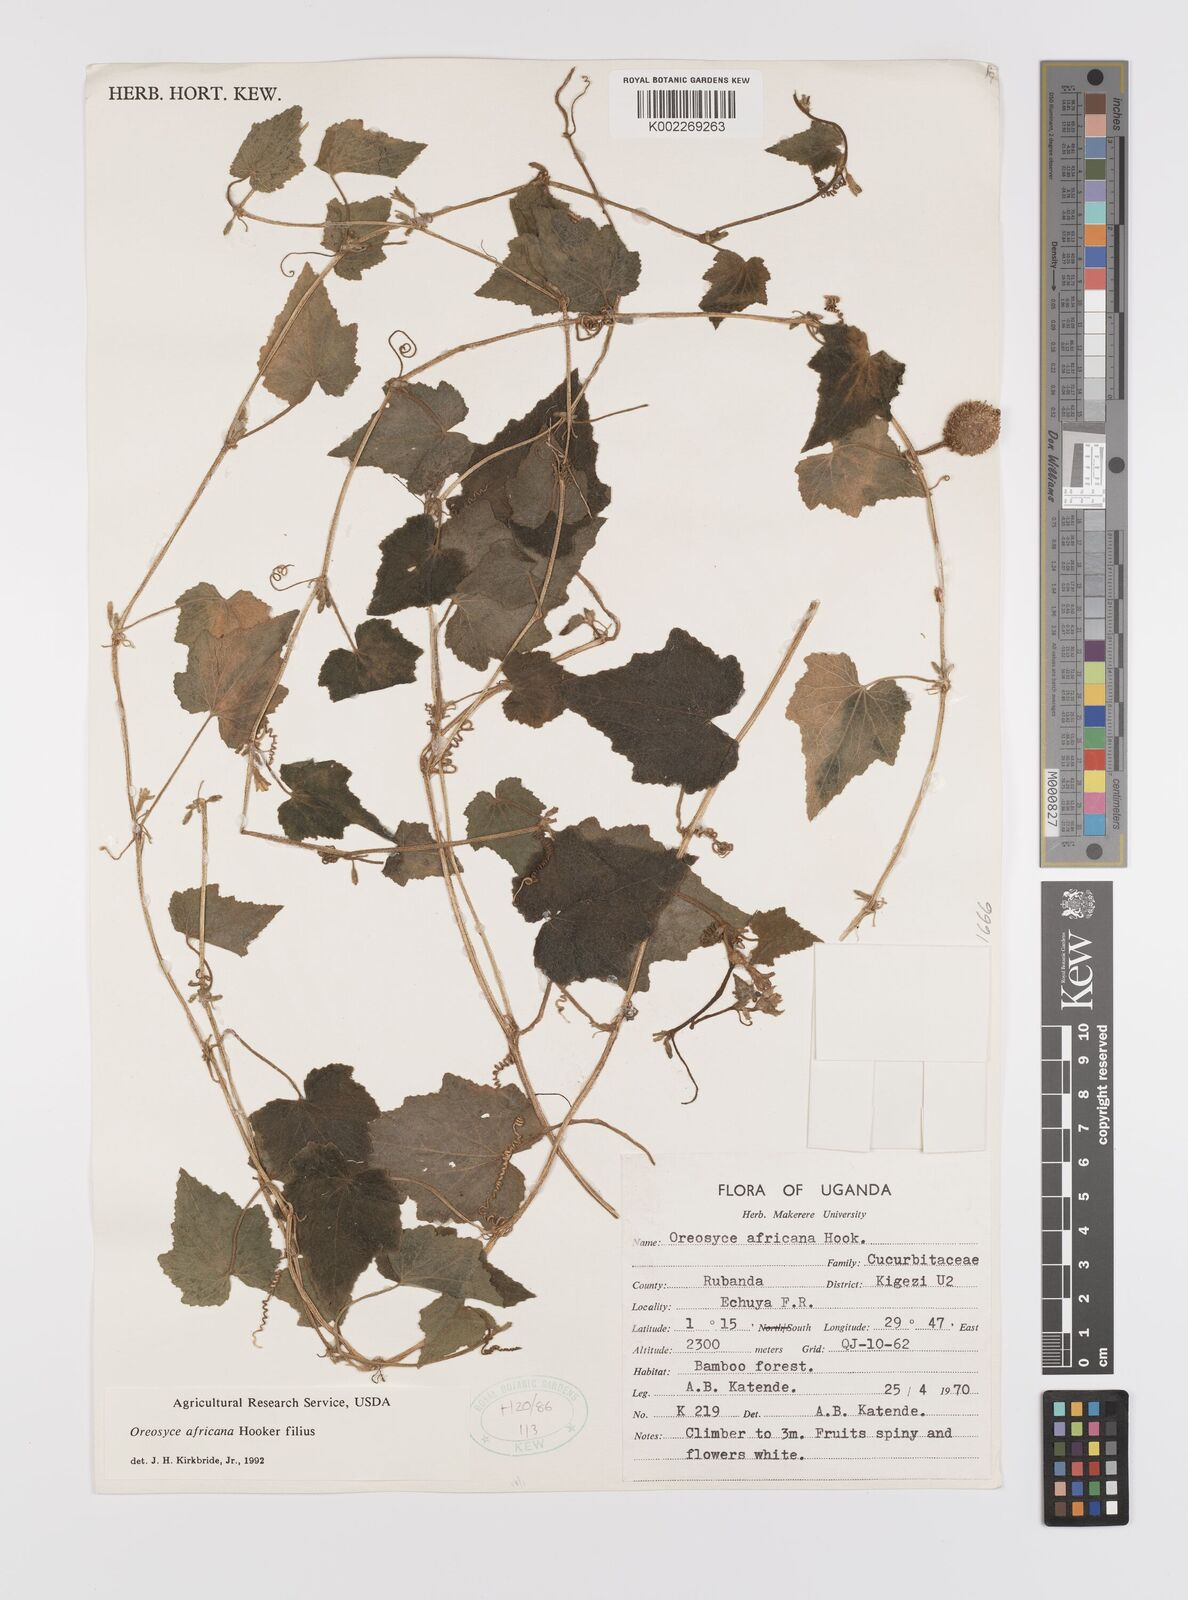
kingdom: Plantae
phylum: Tracheophyta
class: Magnoliopsida
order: Cucurbitales
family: Cucurbitaceae
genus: Cucumis
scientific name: Cucumis oreosyce
